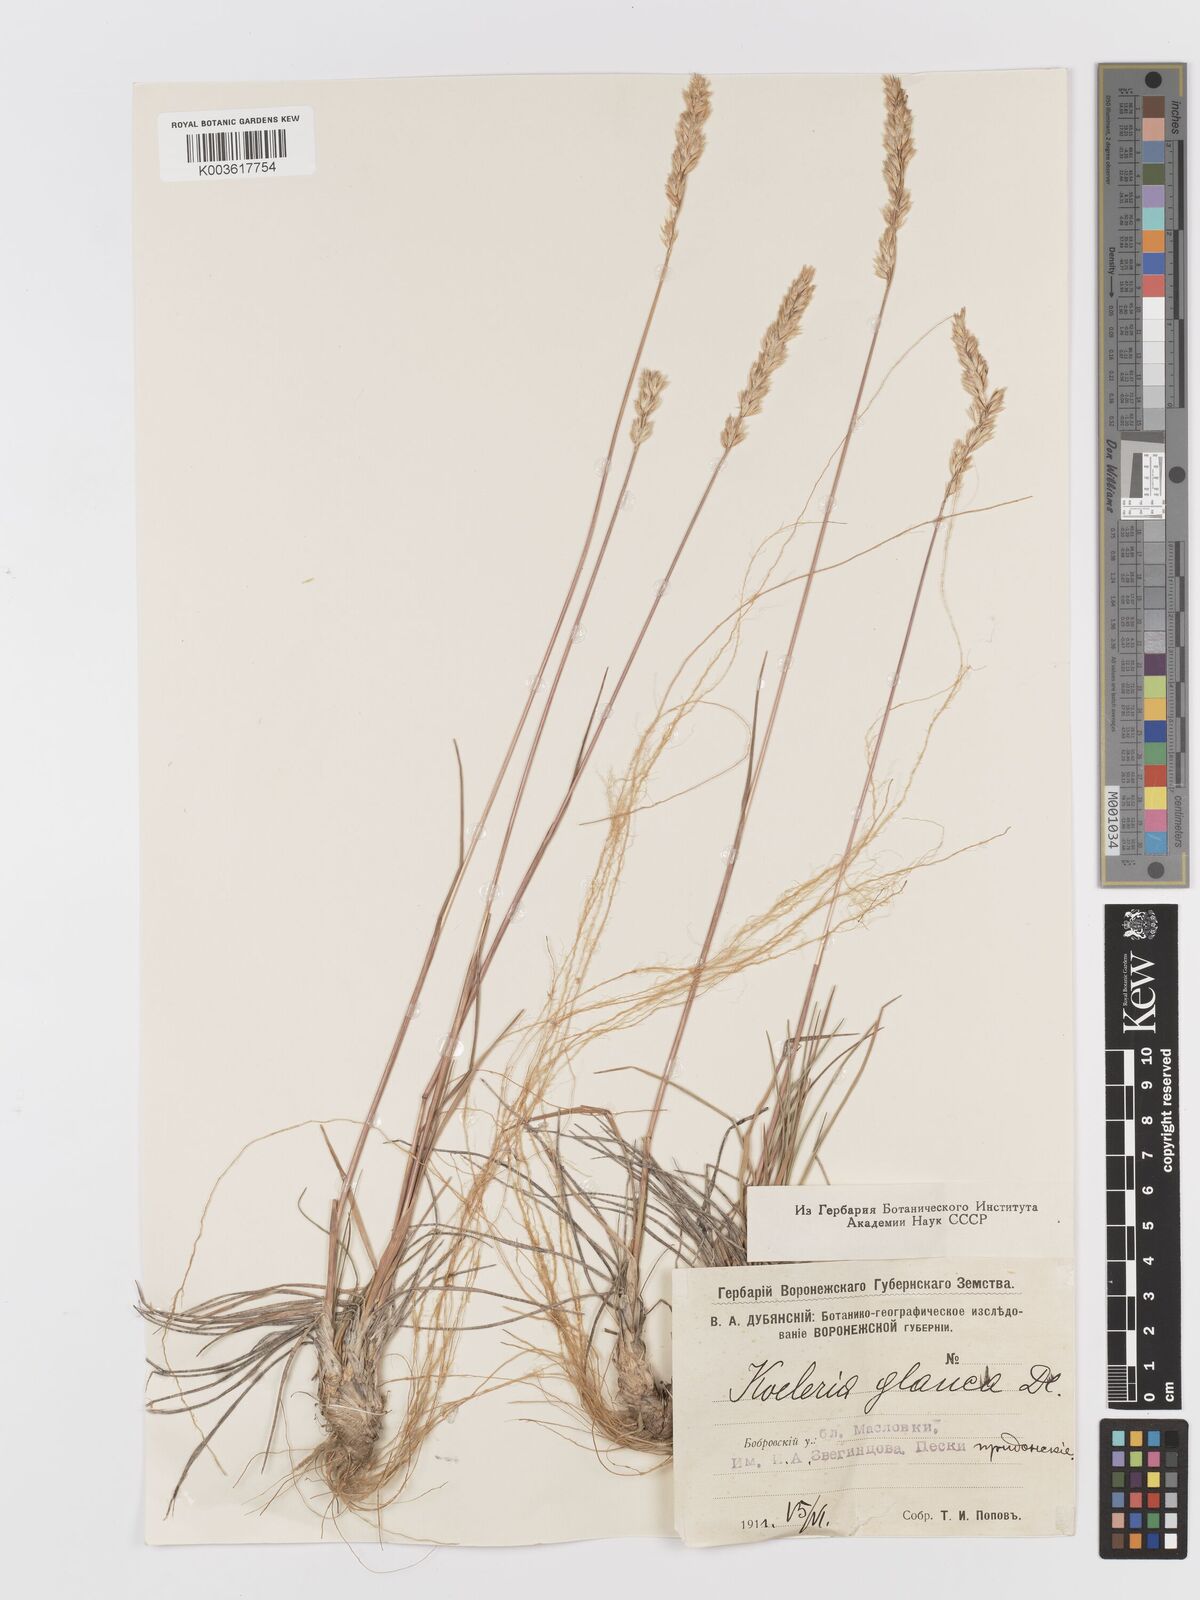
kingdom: Plantae
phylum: Tracheophyta
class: Liliopsida
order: Poales
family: Poaceae
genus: Koeleria
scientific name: Koeleria glauca
